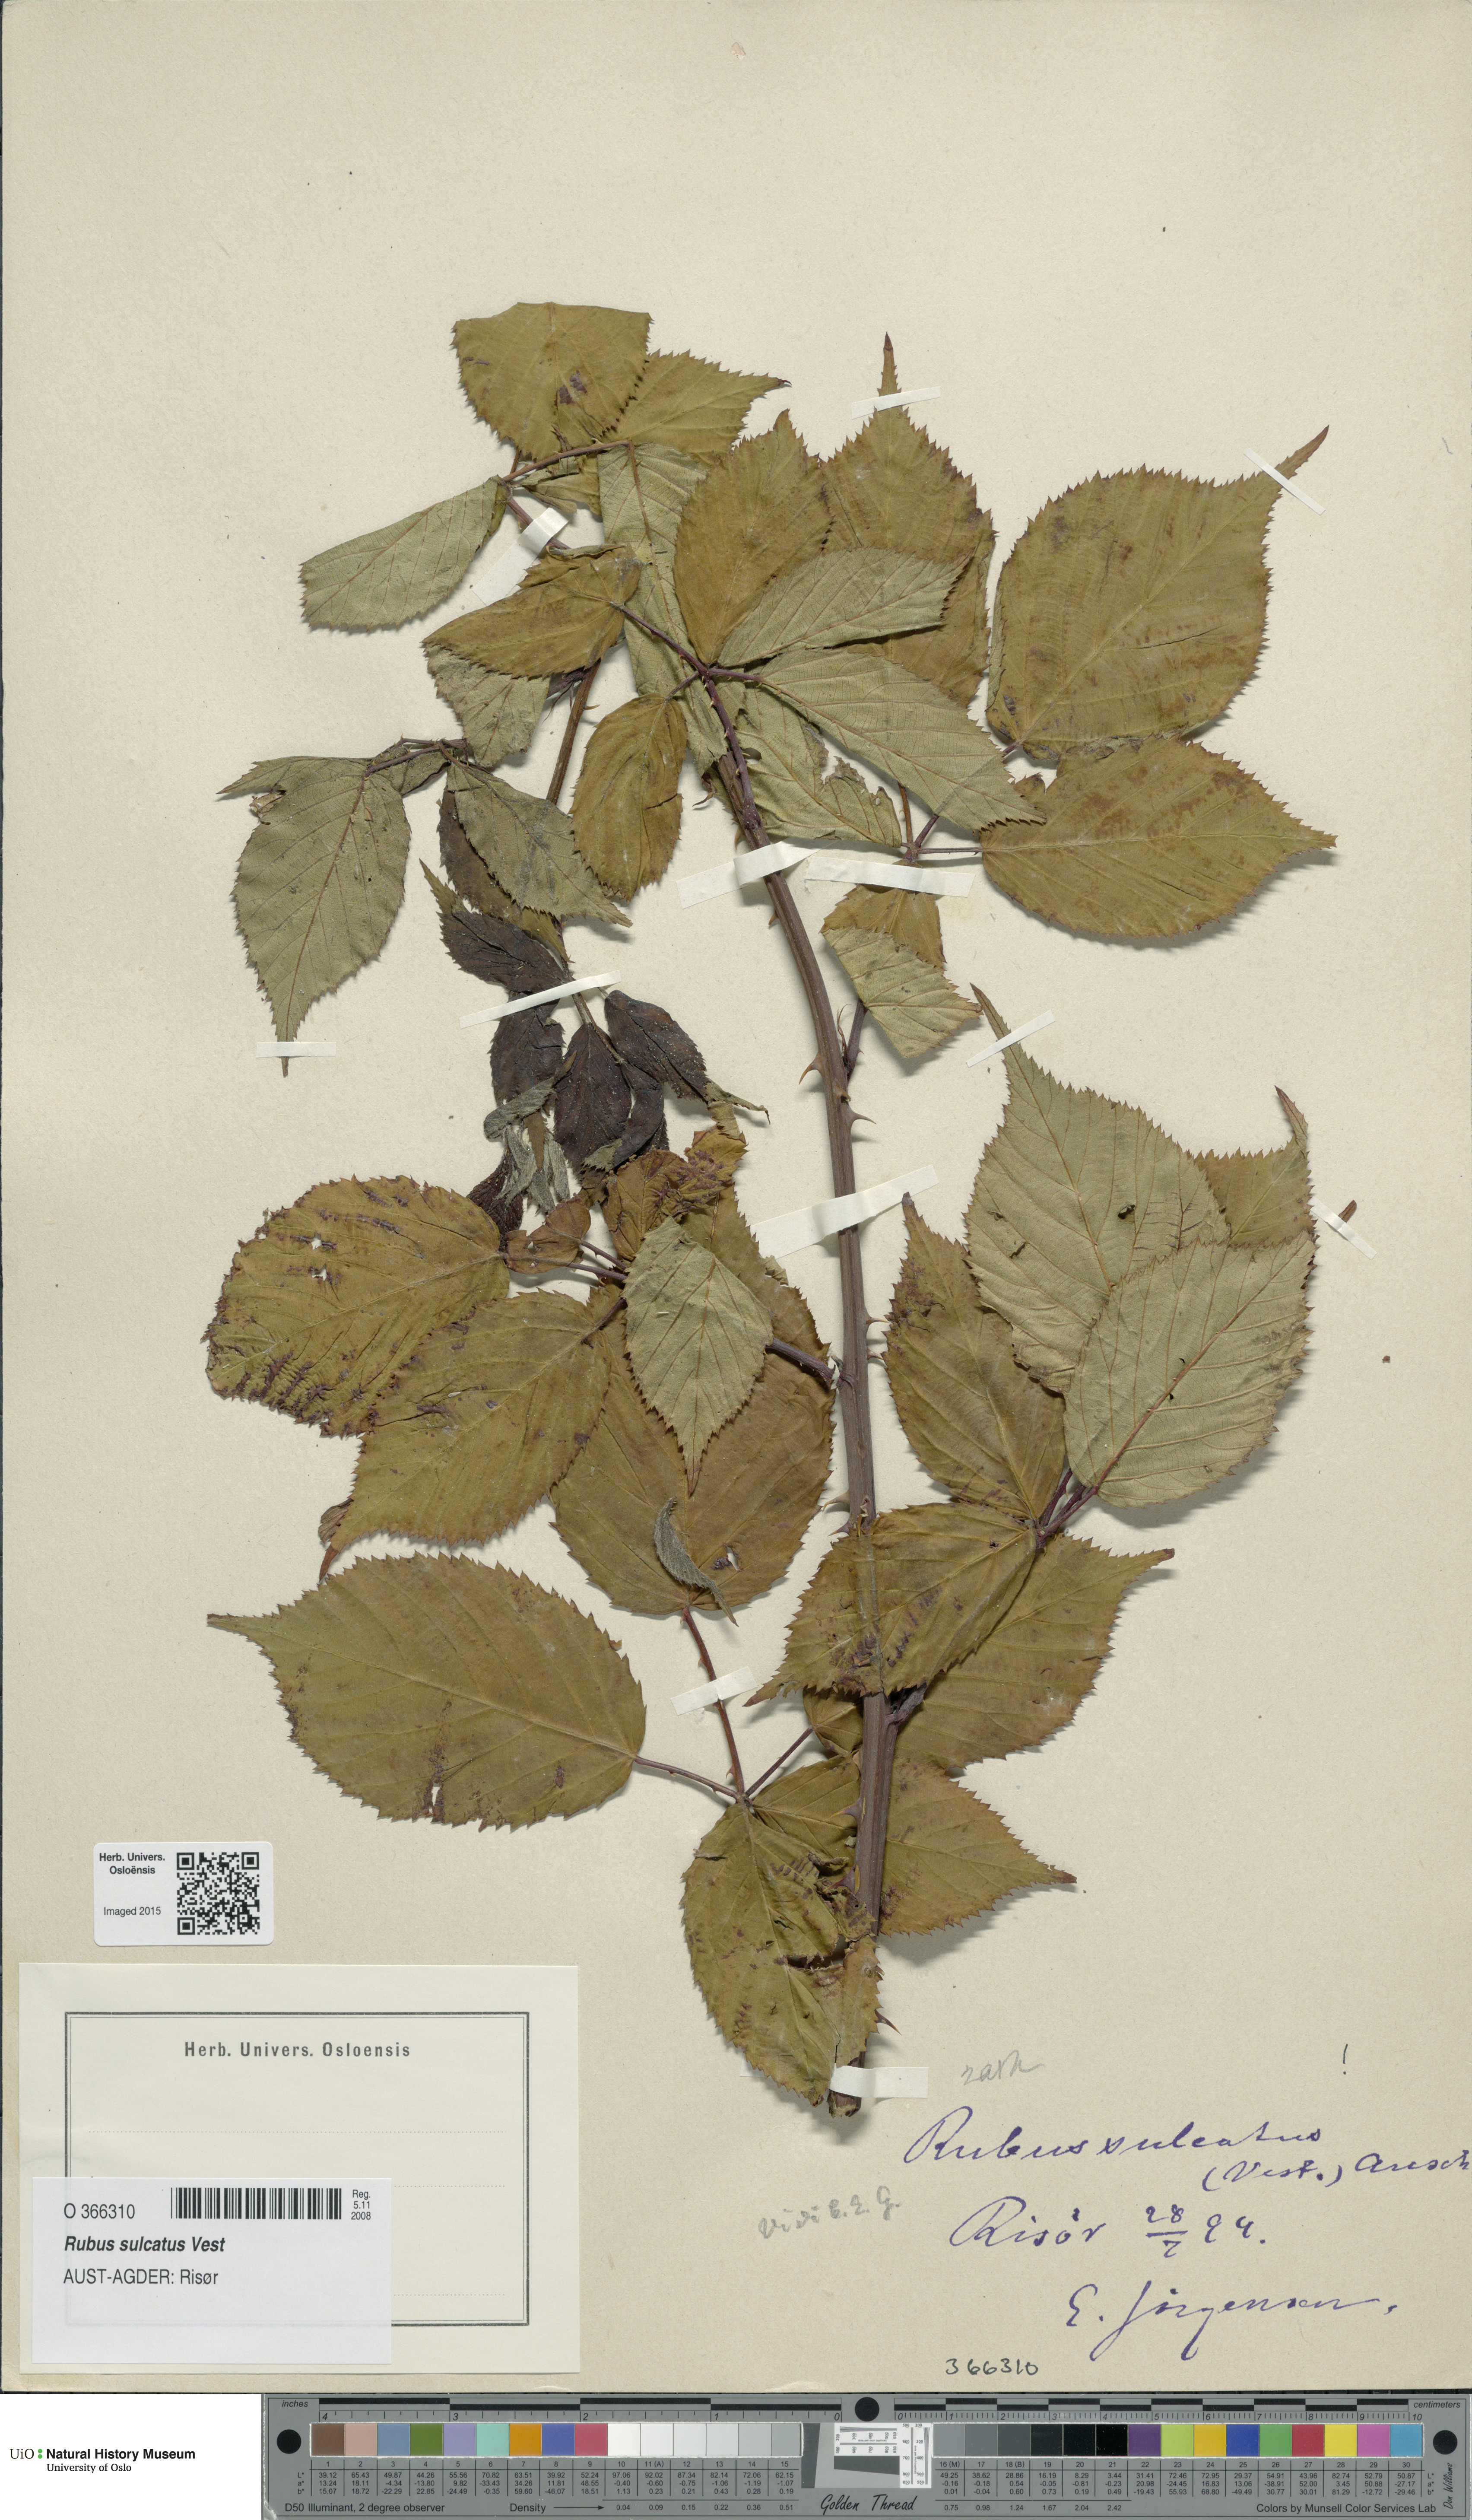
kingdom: Plantae
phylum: Tracheophyta
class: Magnoliopsida
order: Rosales
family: Rosaceae
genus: Rubus
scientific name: Rubus sulcatus
